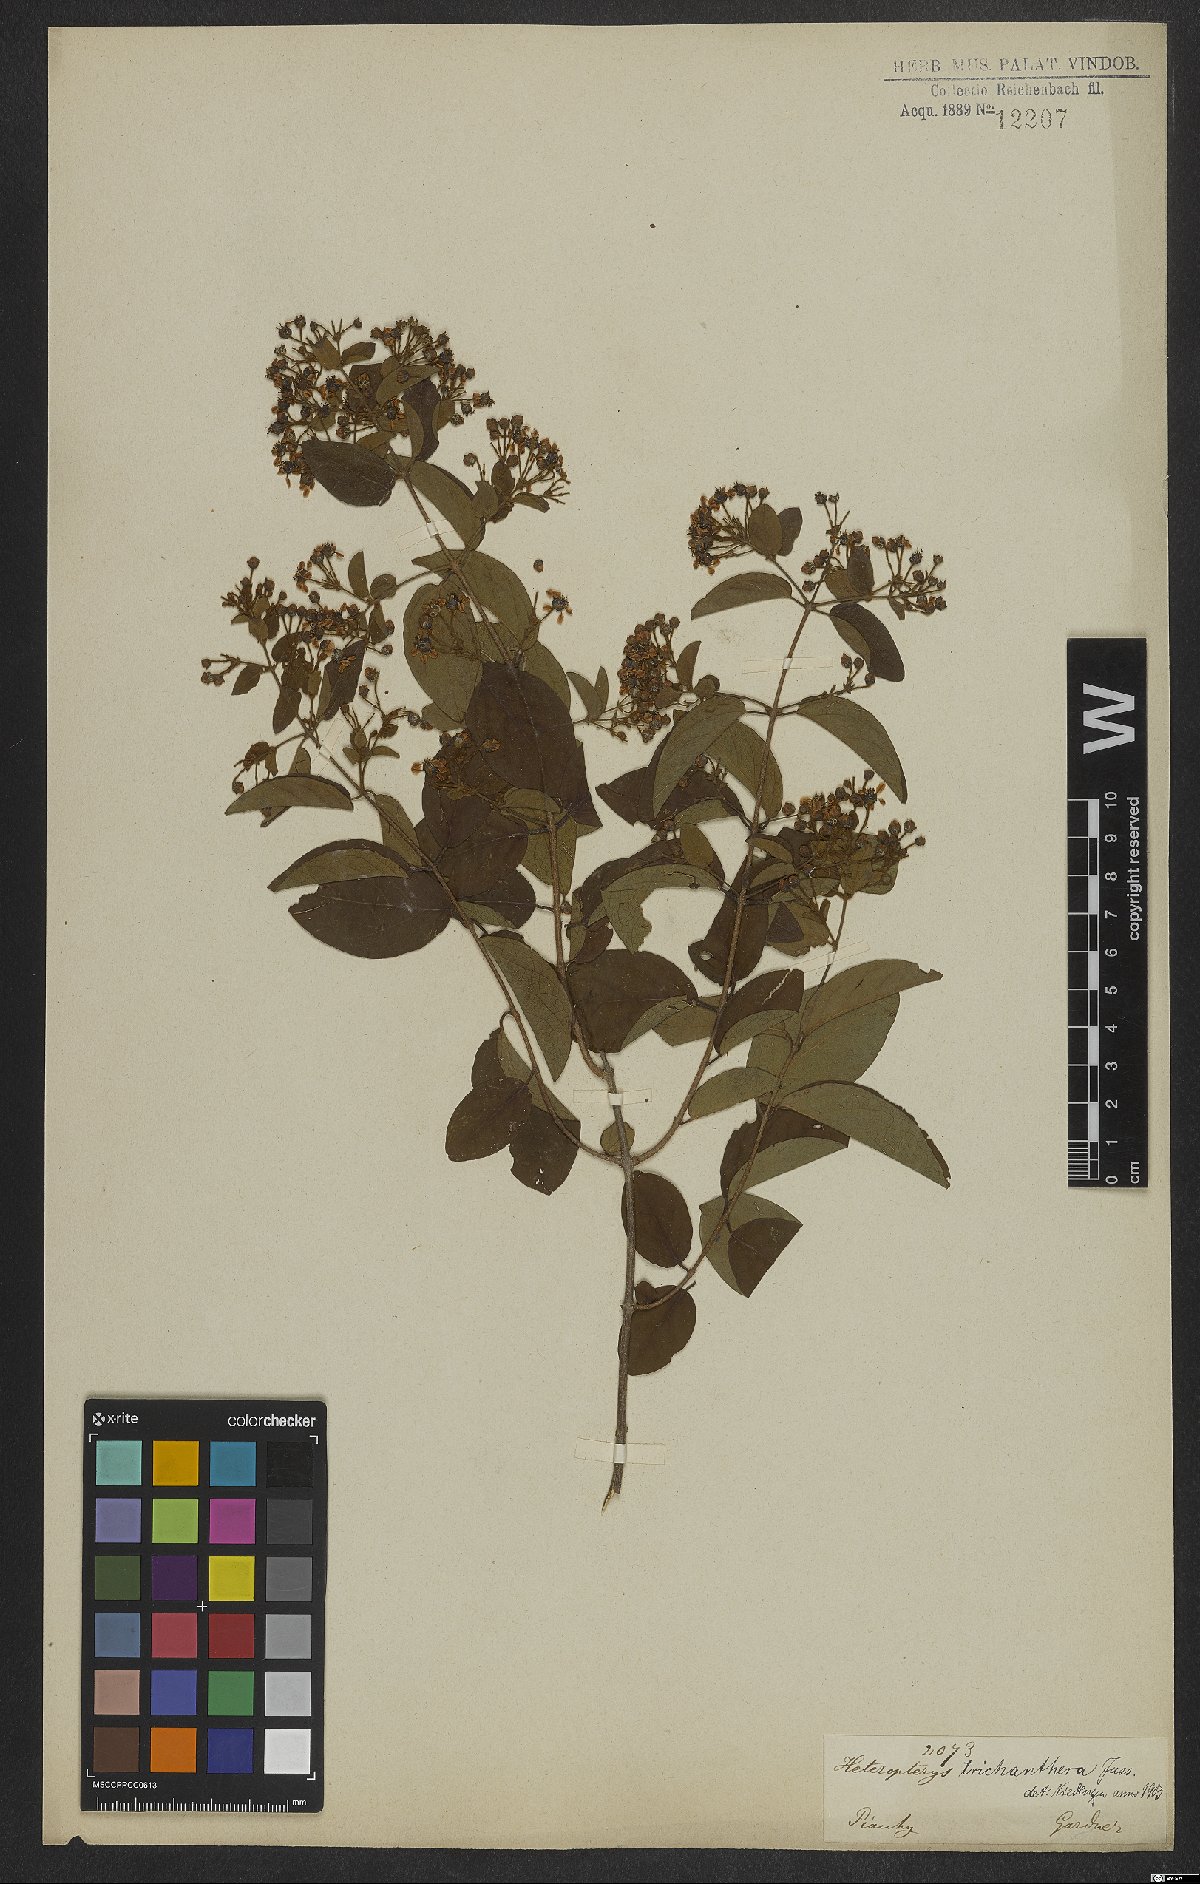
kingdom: Plantae
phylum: Tracheophyta
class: Magnoliopsida
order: Malpighiales
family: Malpighiaceae
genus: Heteropterys
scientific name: Heteropterys trichanthera
